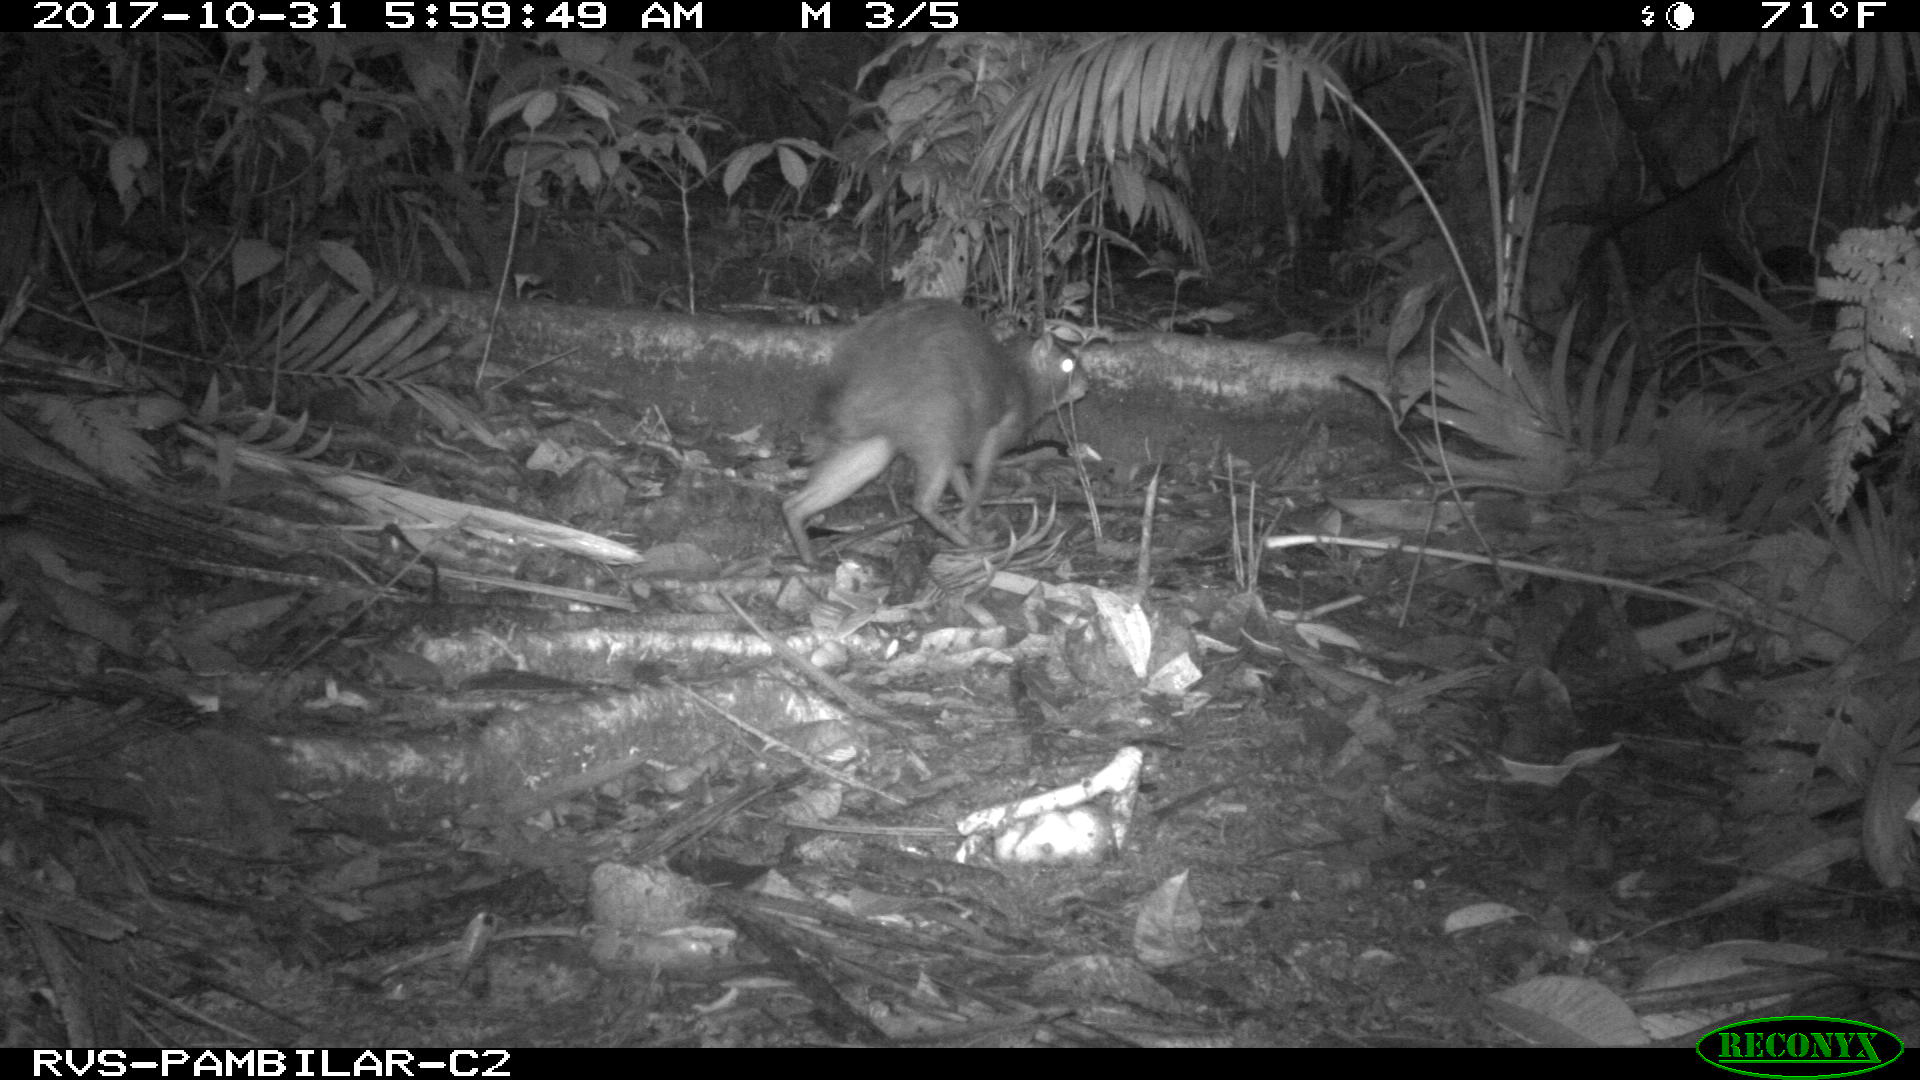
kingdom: Animalia
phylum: Chordata
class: Mammalia
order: Rodentia
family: Dasyproctidae
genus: Dasyprocta
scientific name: Dasyprocta punctata
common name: Central american agouti
